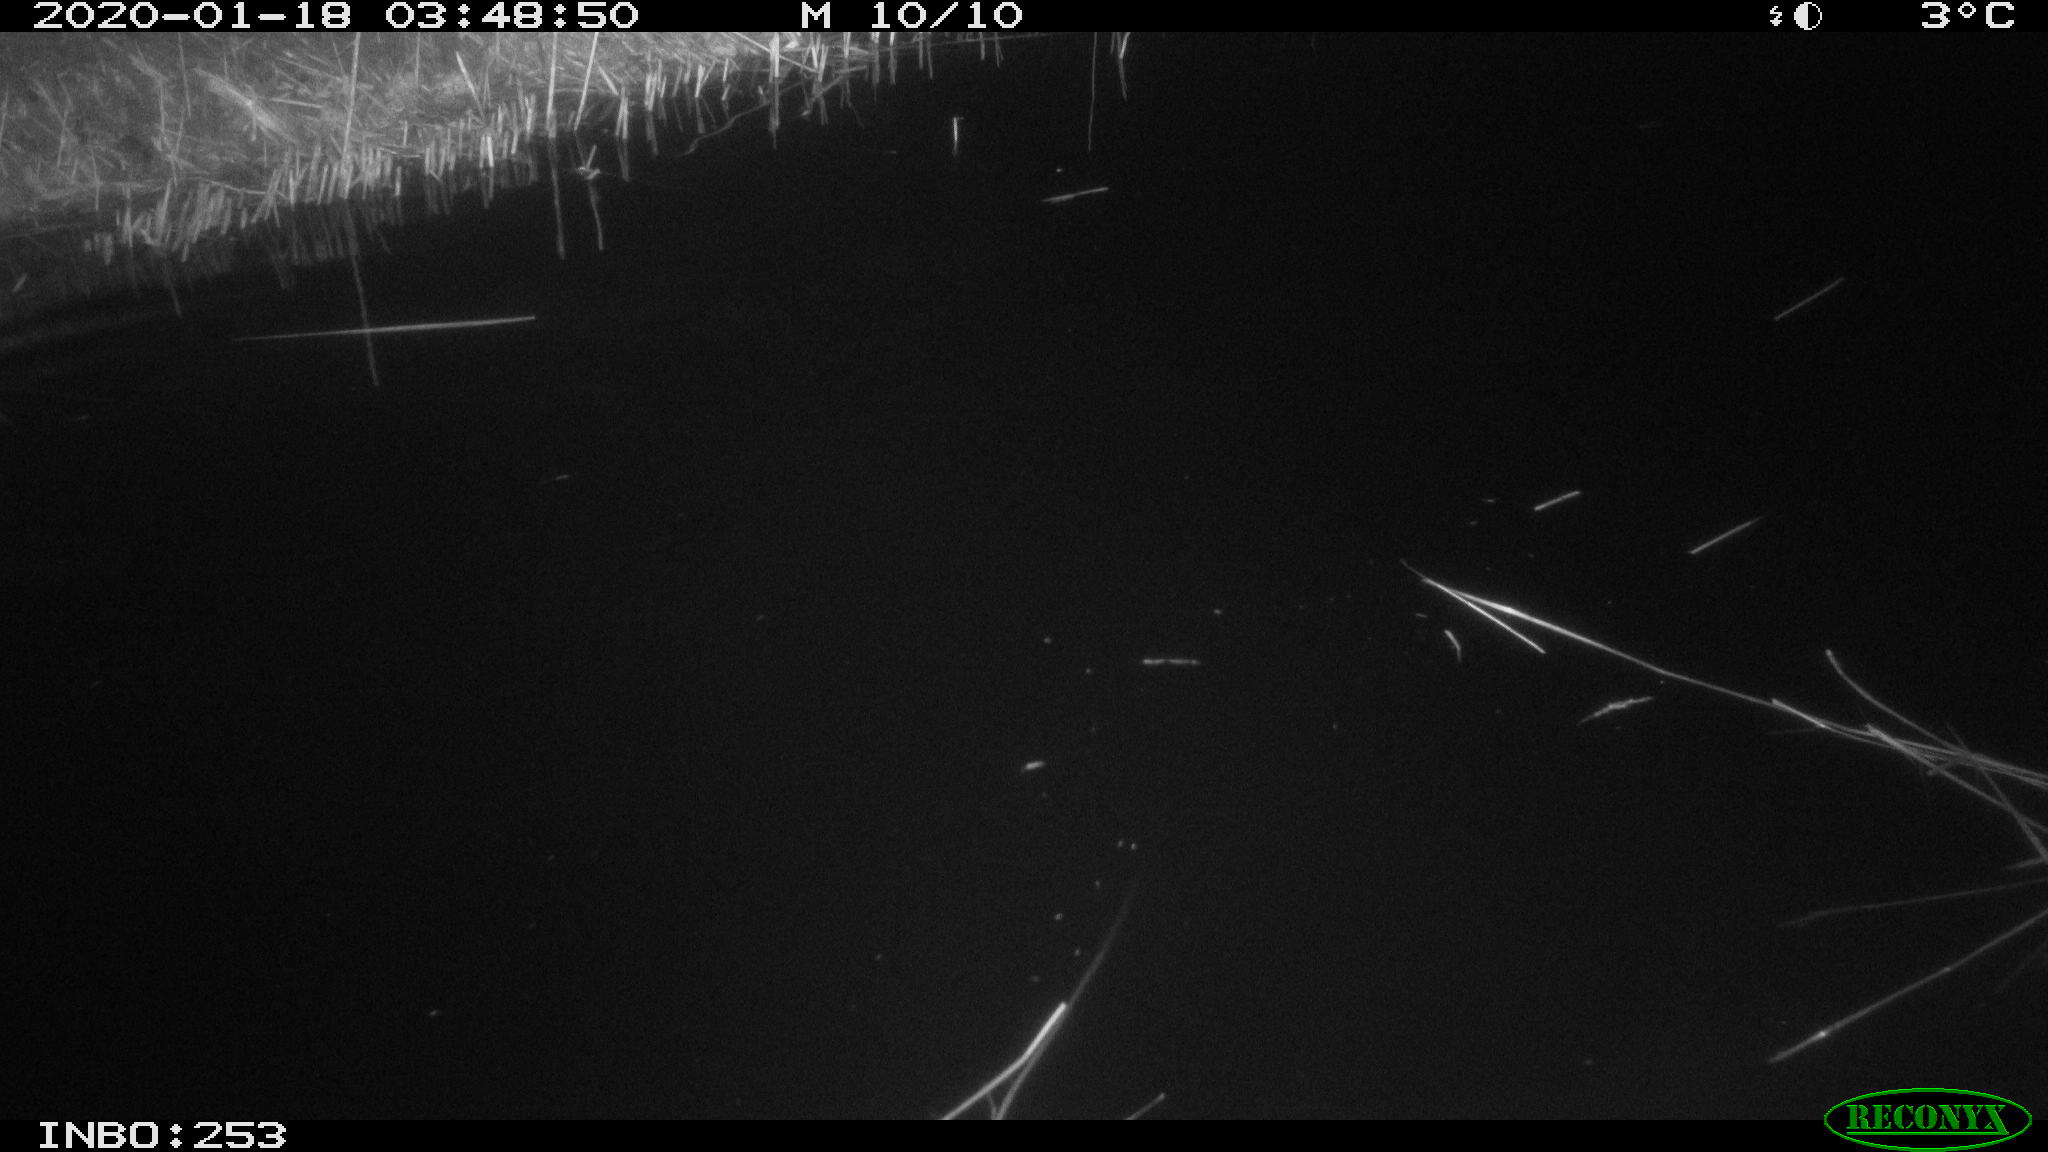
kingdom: Animalia
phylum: Chordata
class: Aves
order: Anseriformes
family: Anatidae
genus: Anas
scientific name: Anas platyrhynchos
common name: Mallard
